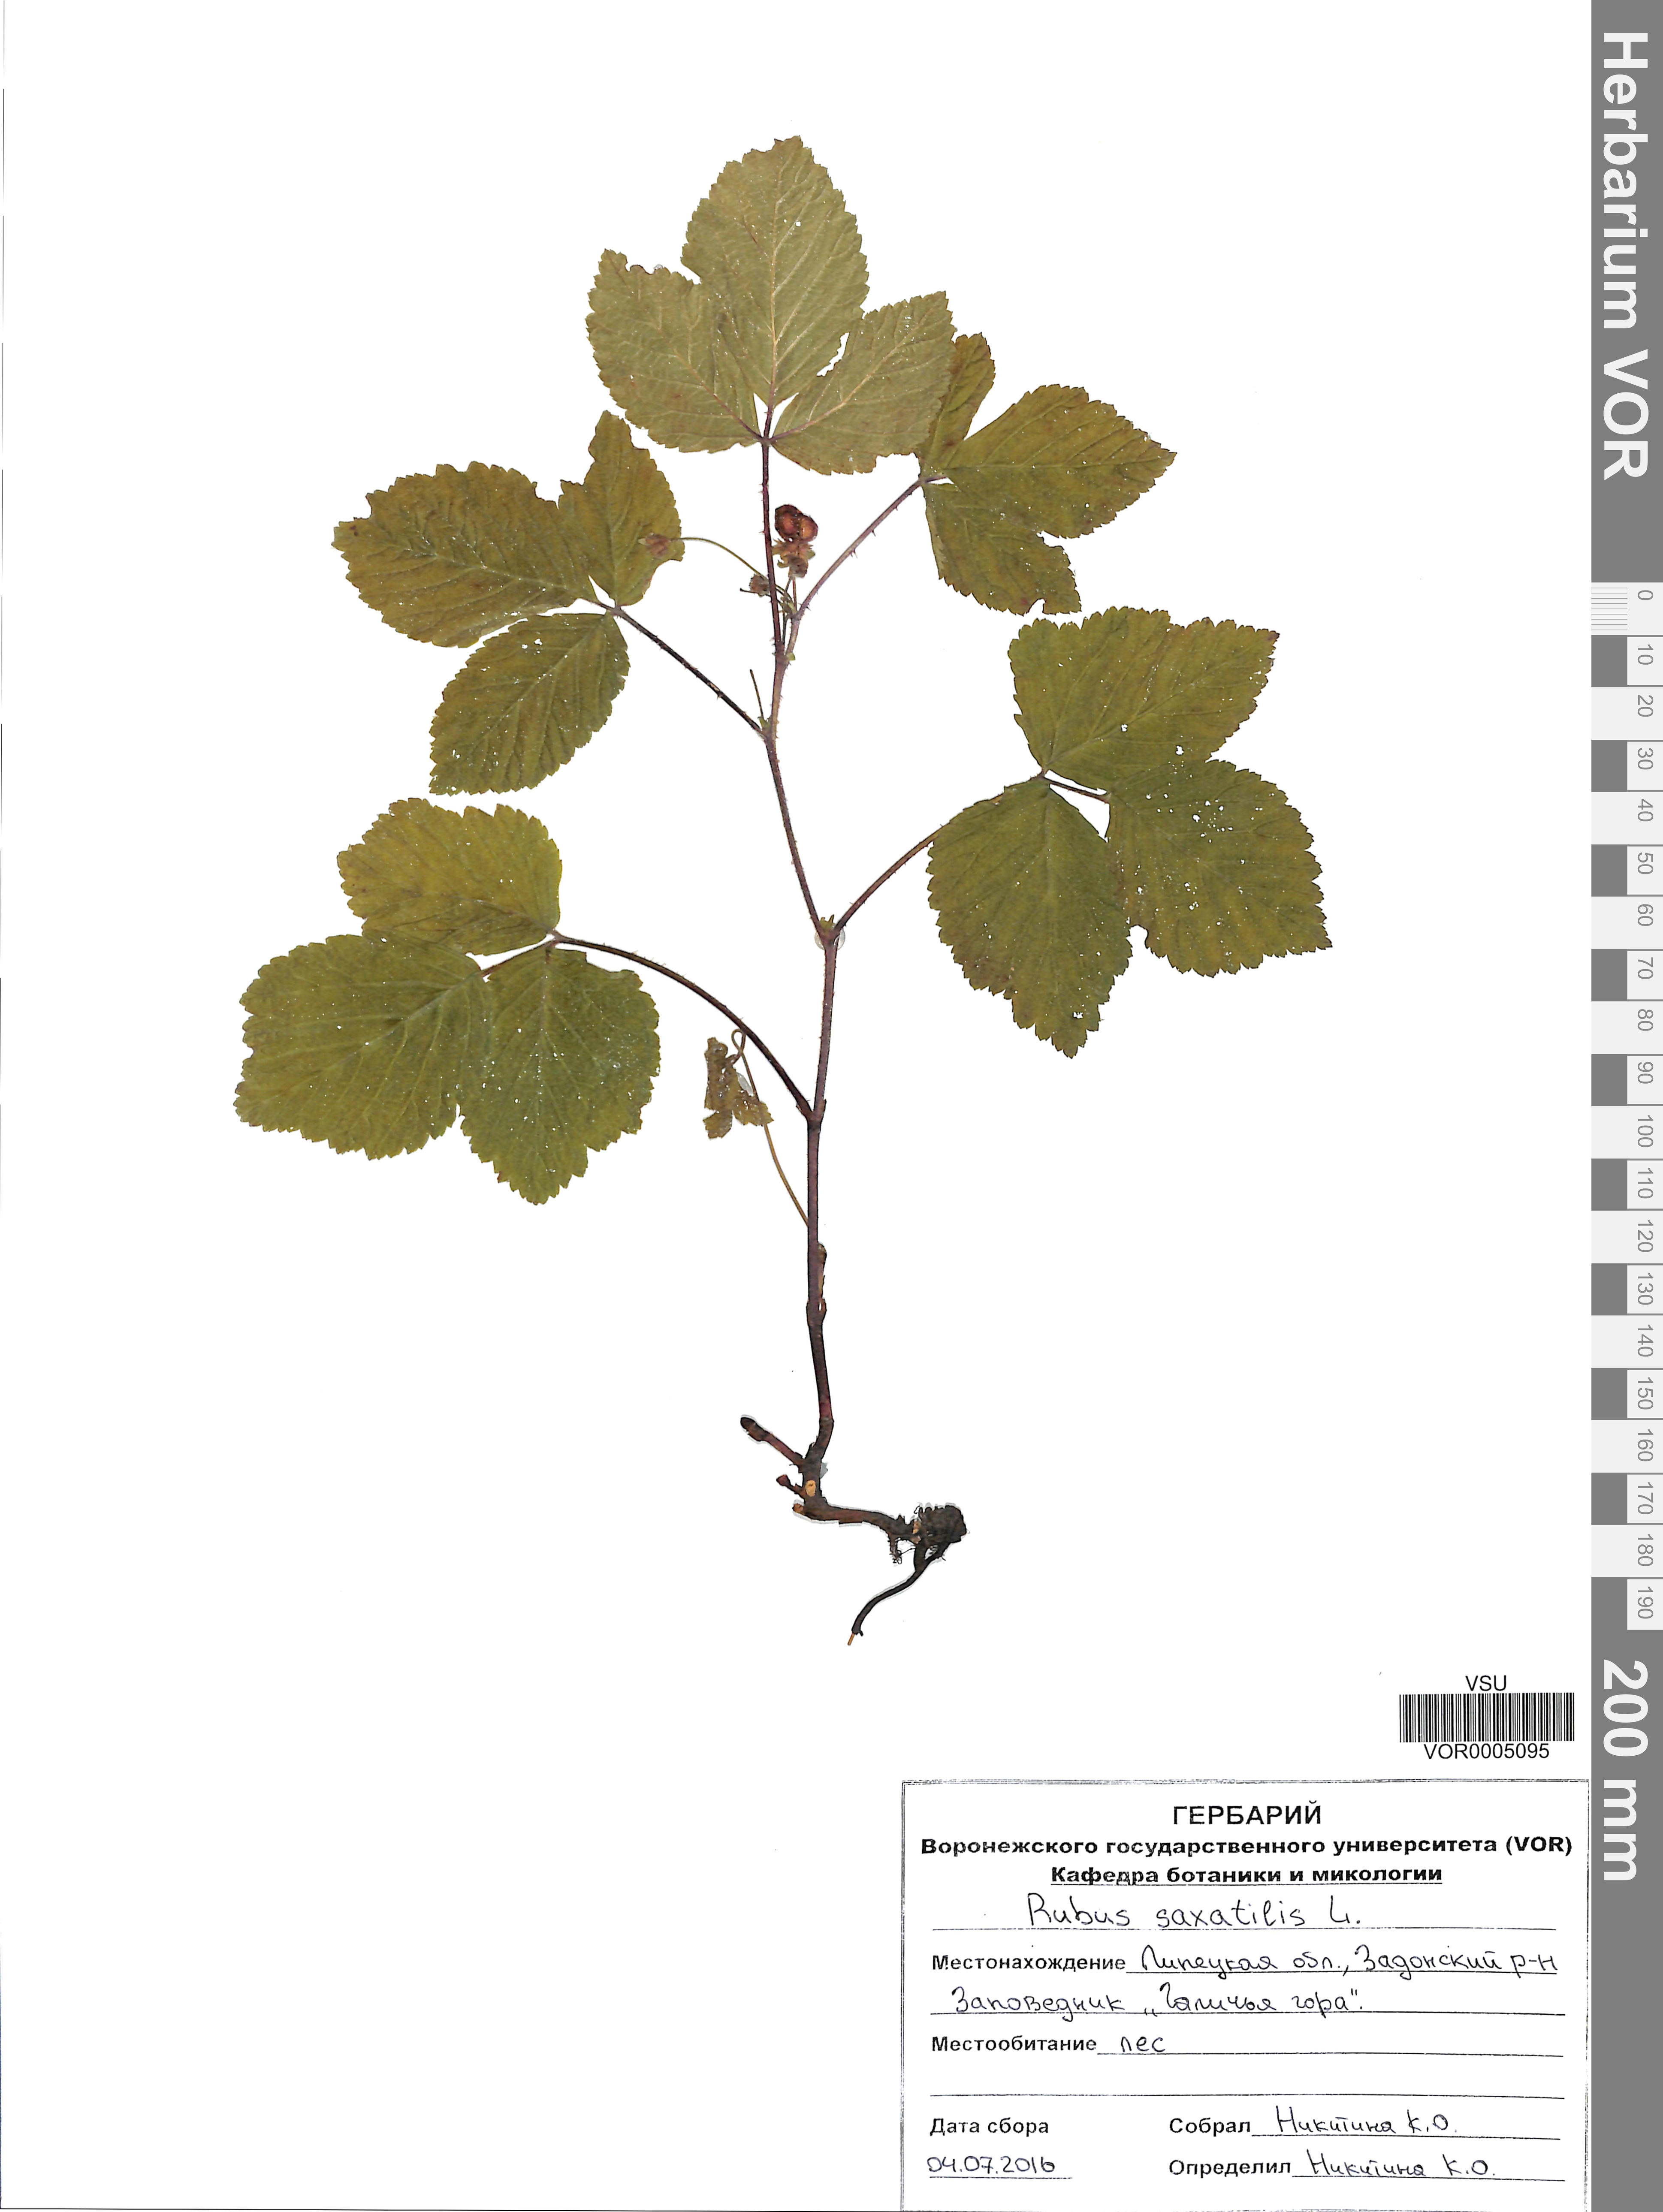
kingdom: Plantae
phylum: Tracheophyta
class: Magnoliopsida
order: Rosales
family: Rosaceae
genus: Rubus
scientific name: Rubus saxatilis
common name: Stone bramble
